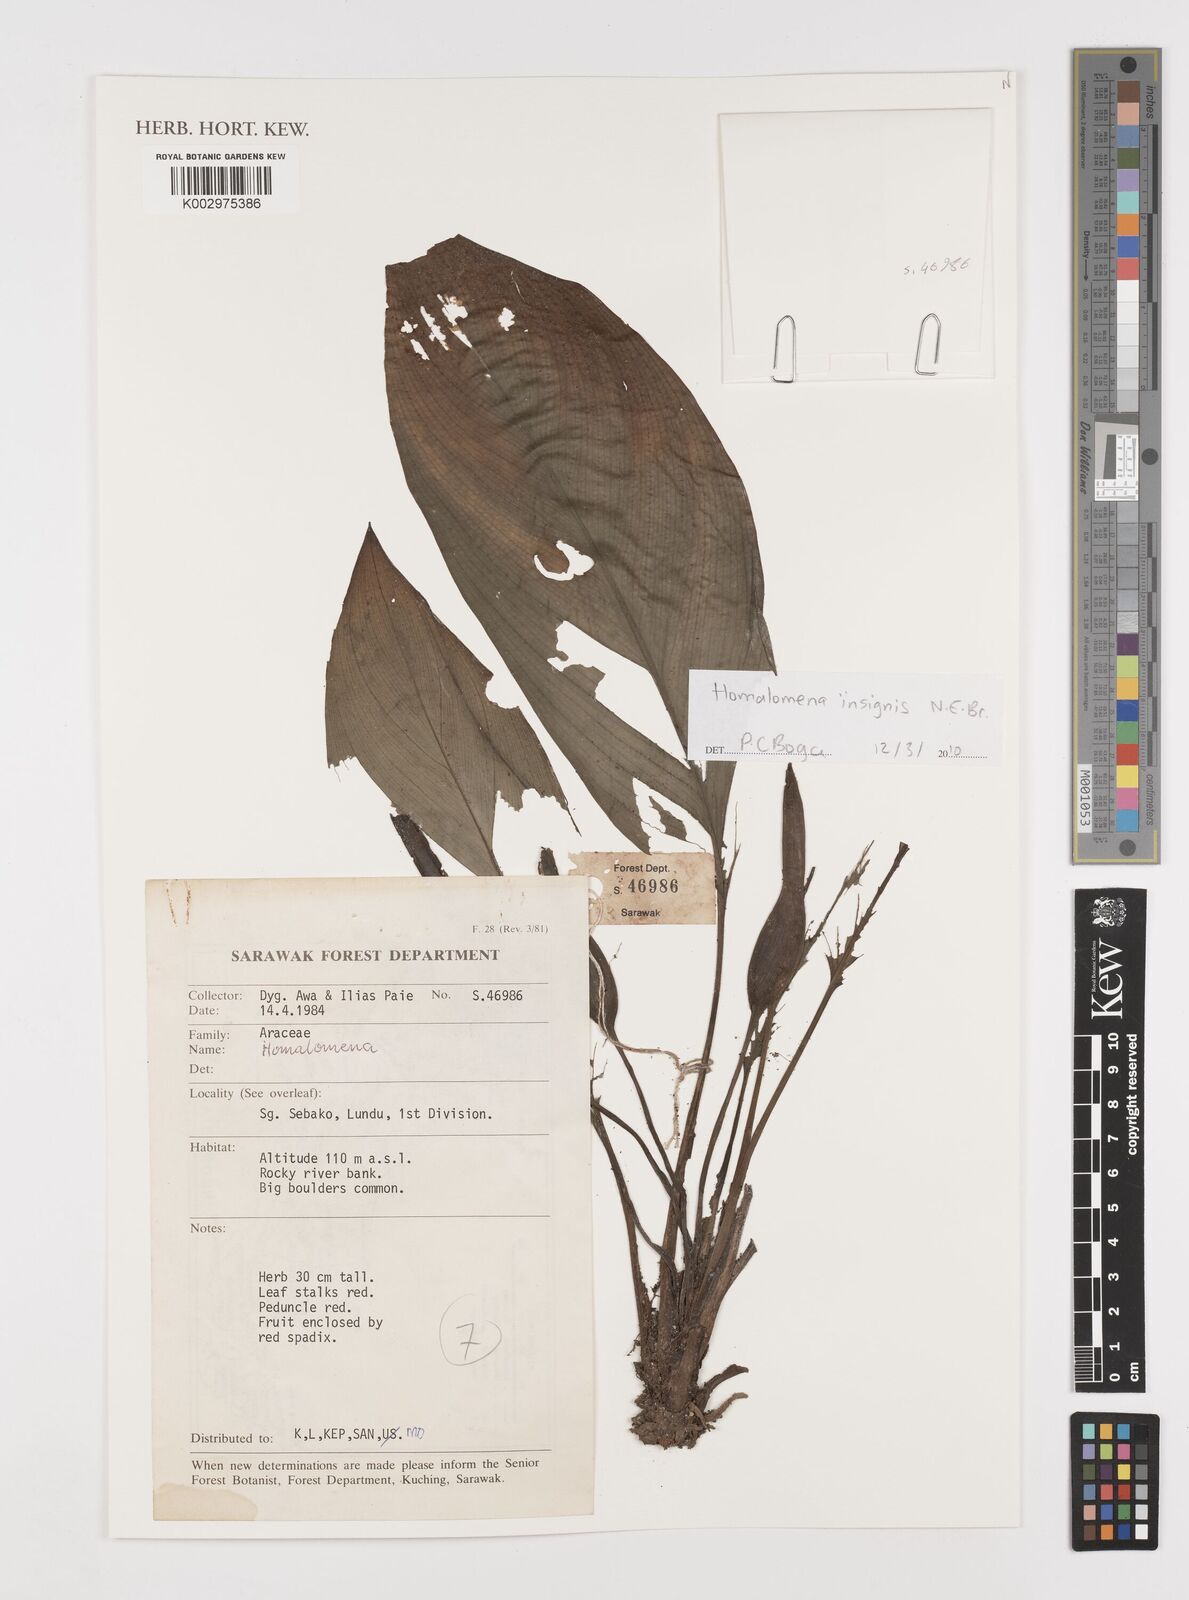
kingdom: Plantae
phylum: Tracheophyta
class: Liliopsida
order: Alismatales
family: Araceae
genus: Homalomena
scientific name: Homalomena insignis
